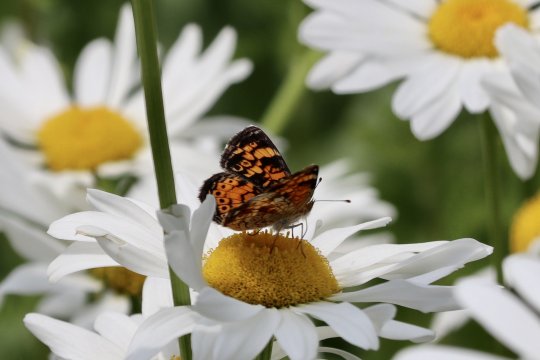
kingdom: Animalia
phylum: Arthropoda
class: Insecta
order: Lepidoptera
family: Nymphalidae
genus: Phyciodes
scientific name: Phyciodes
